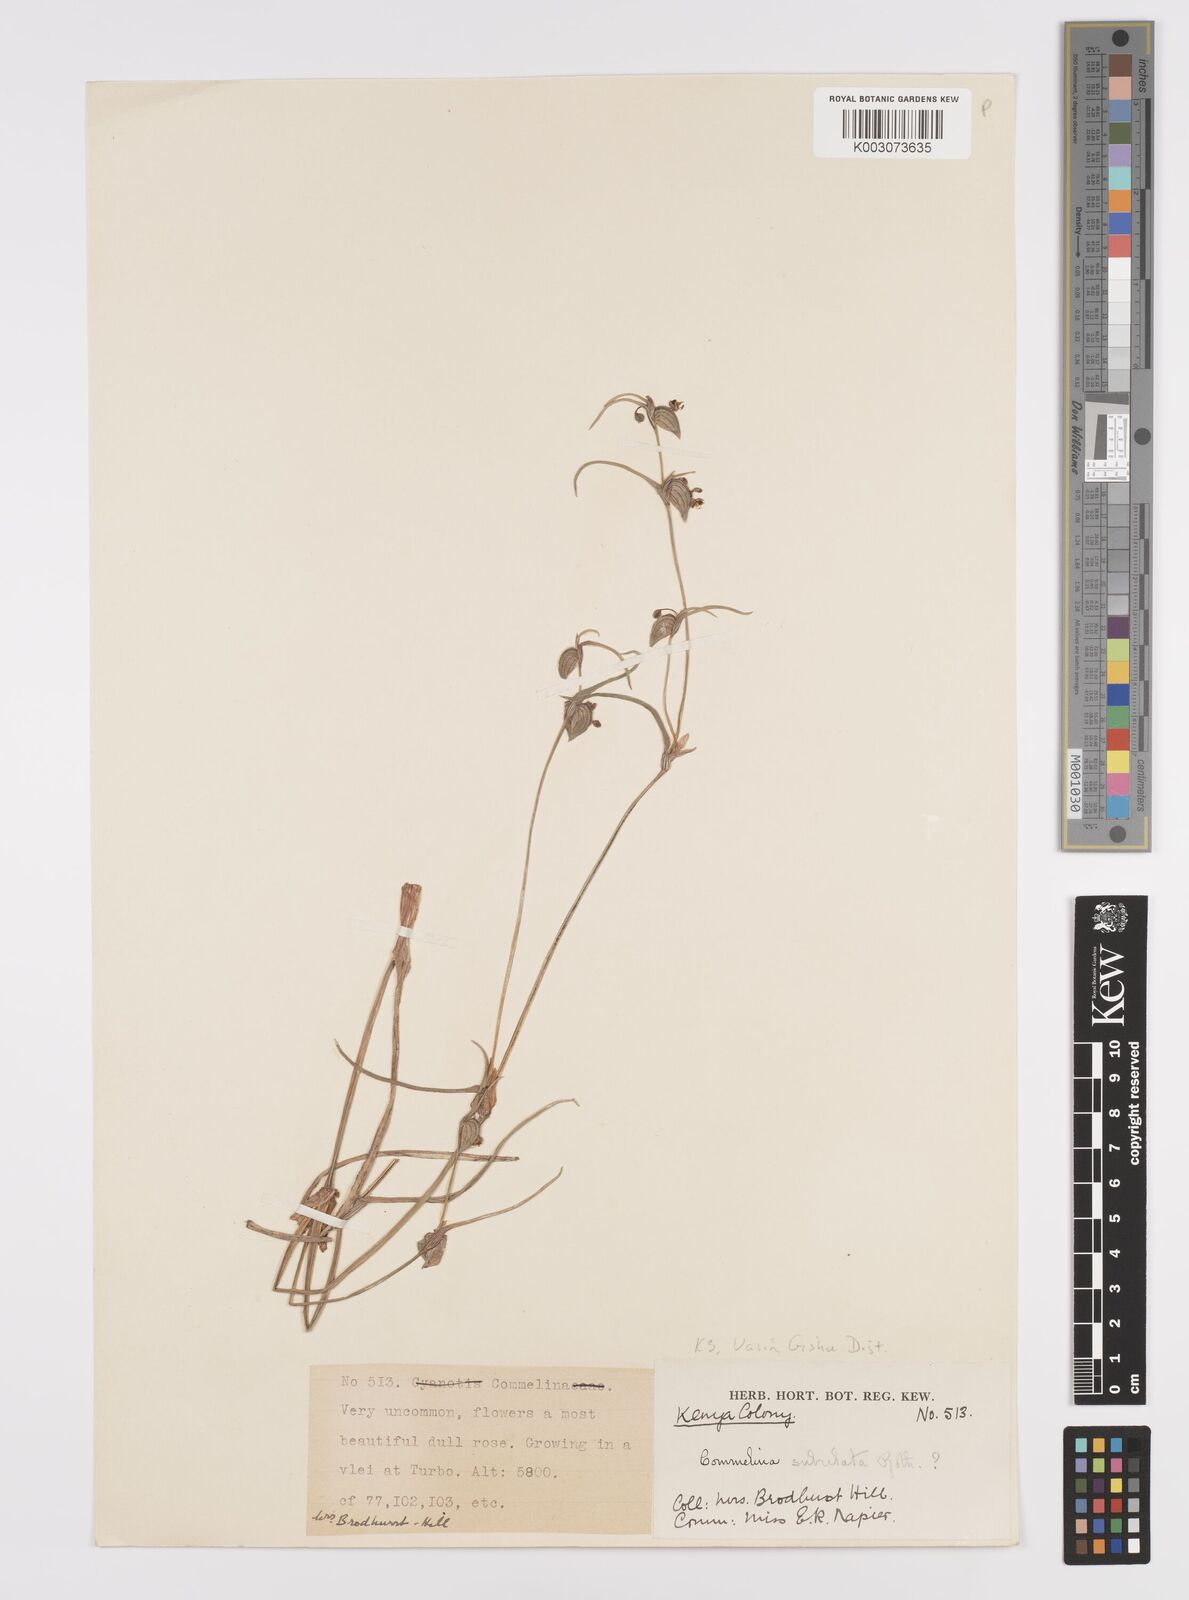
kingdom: Plantae
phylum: Tracheophyta
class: Liliopsida
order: Commelinales
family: Commelinaceae
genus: Commelina
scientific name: Commelina purpurea
